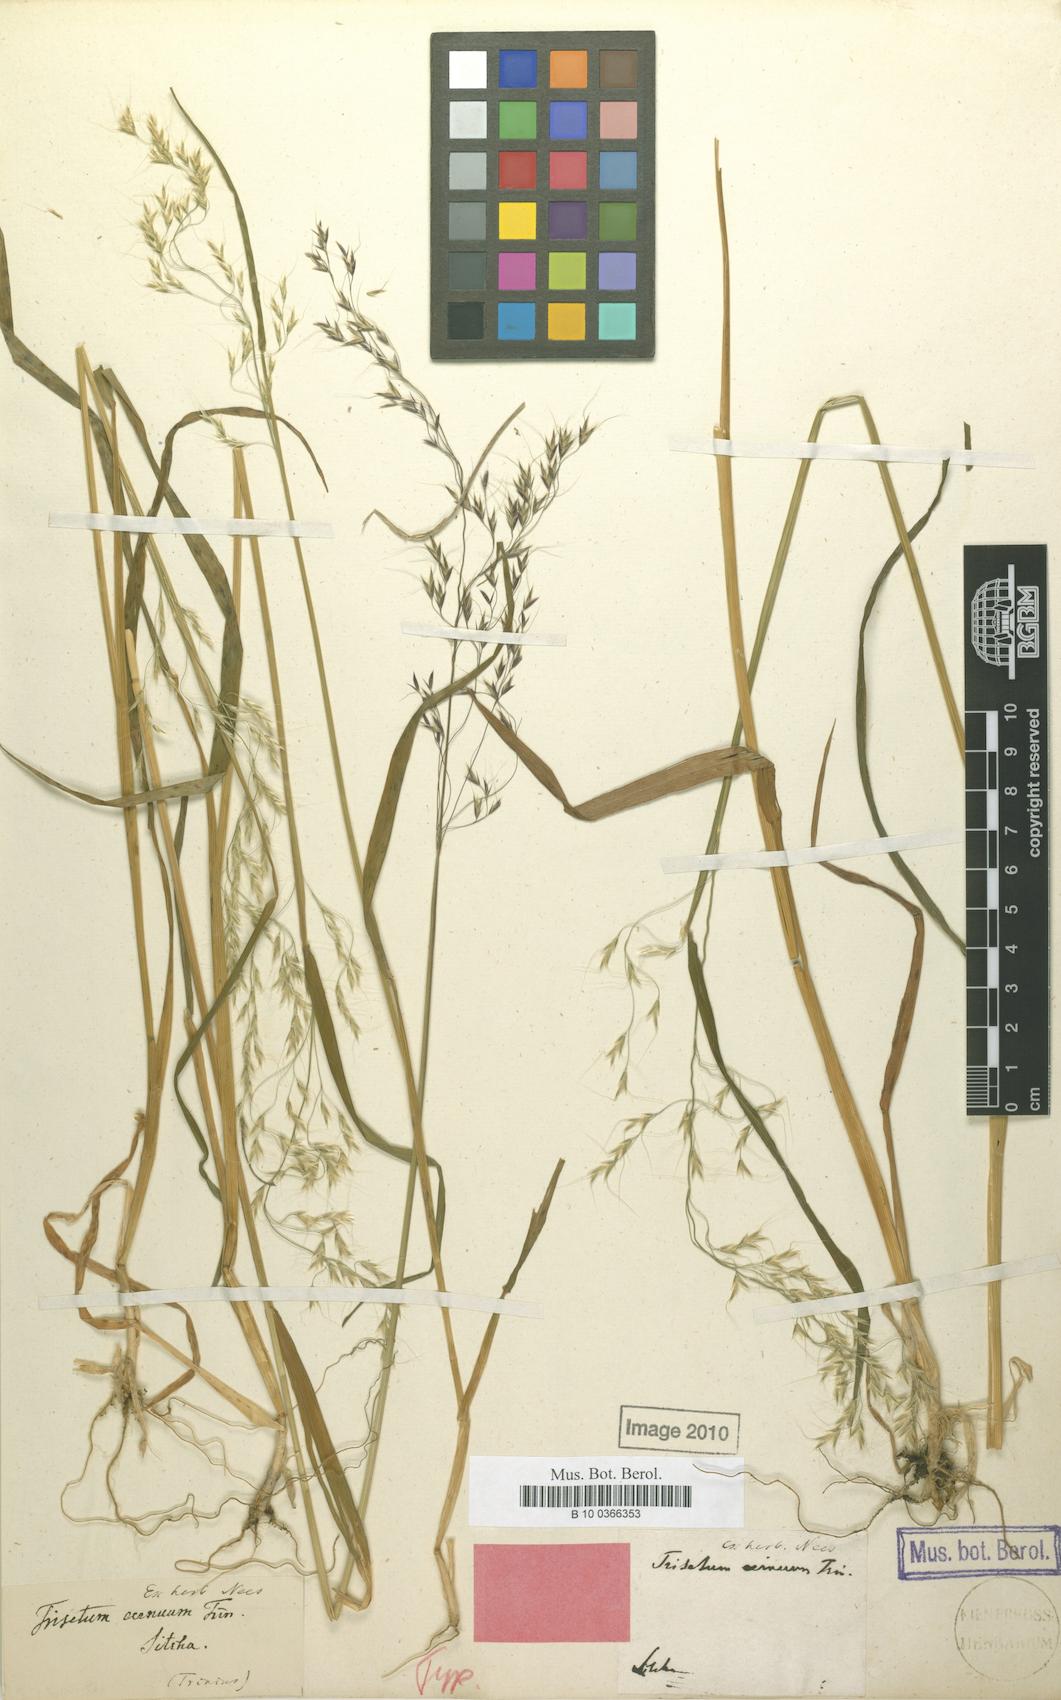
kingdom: Plantae
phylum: Tracheophyta
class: Liliopsida
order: Poales
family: Poaceae
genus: Graphephorum
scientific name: Graphephorum cernuum
